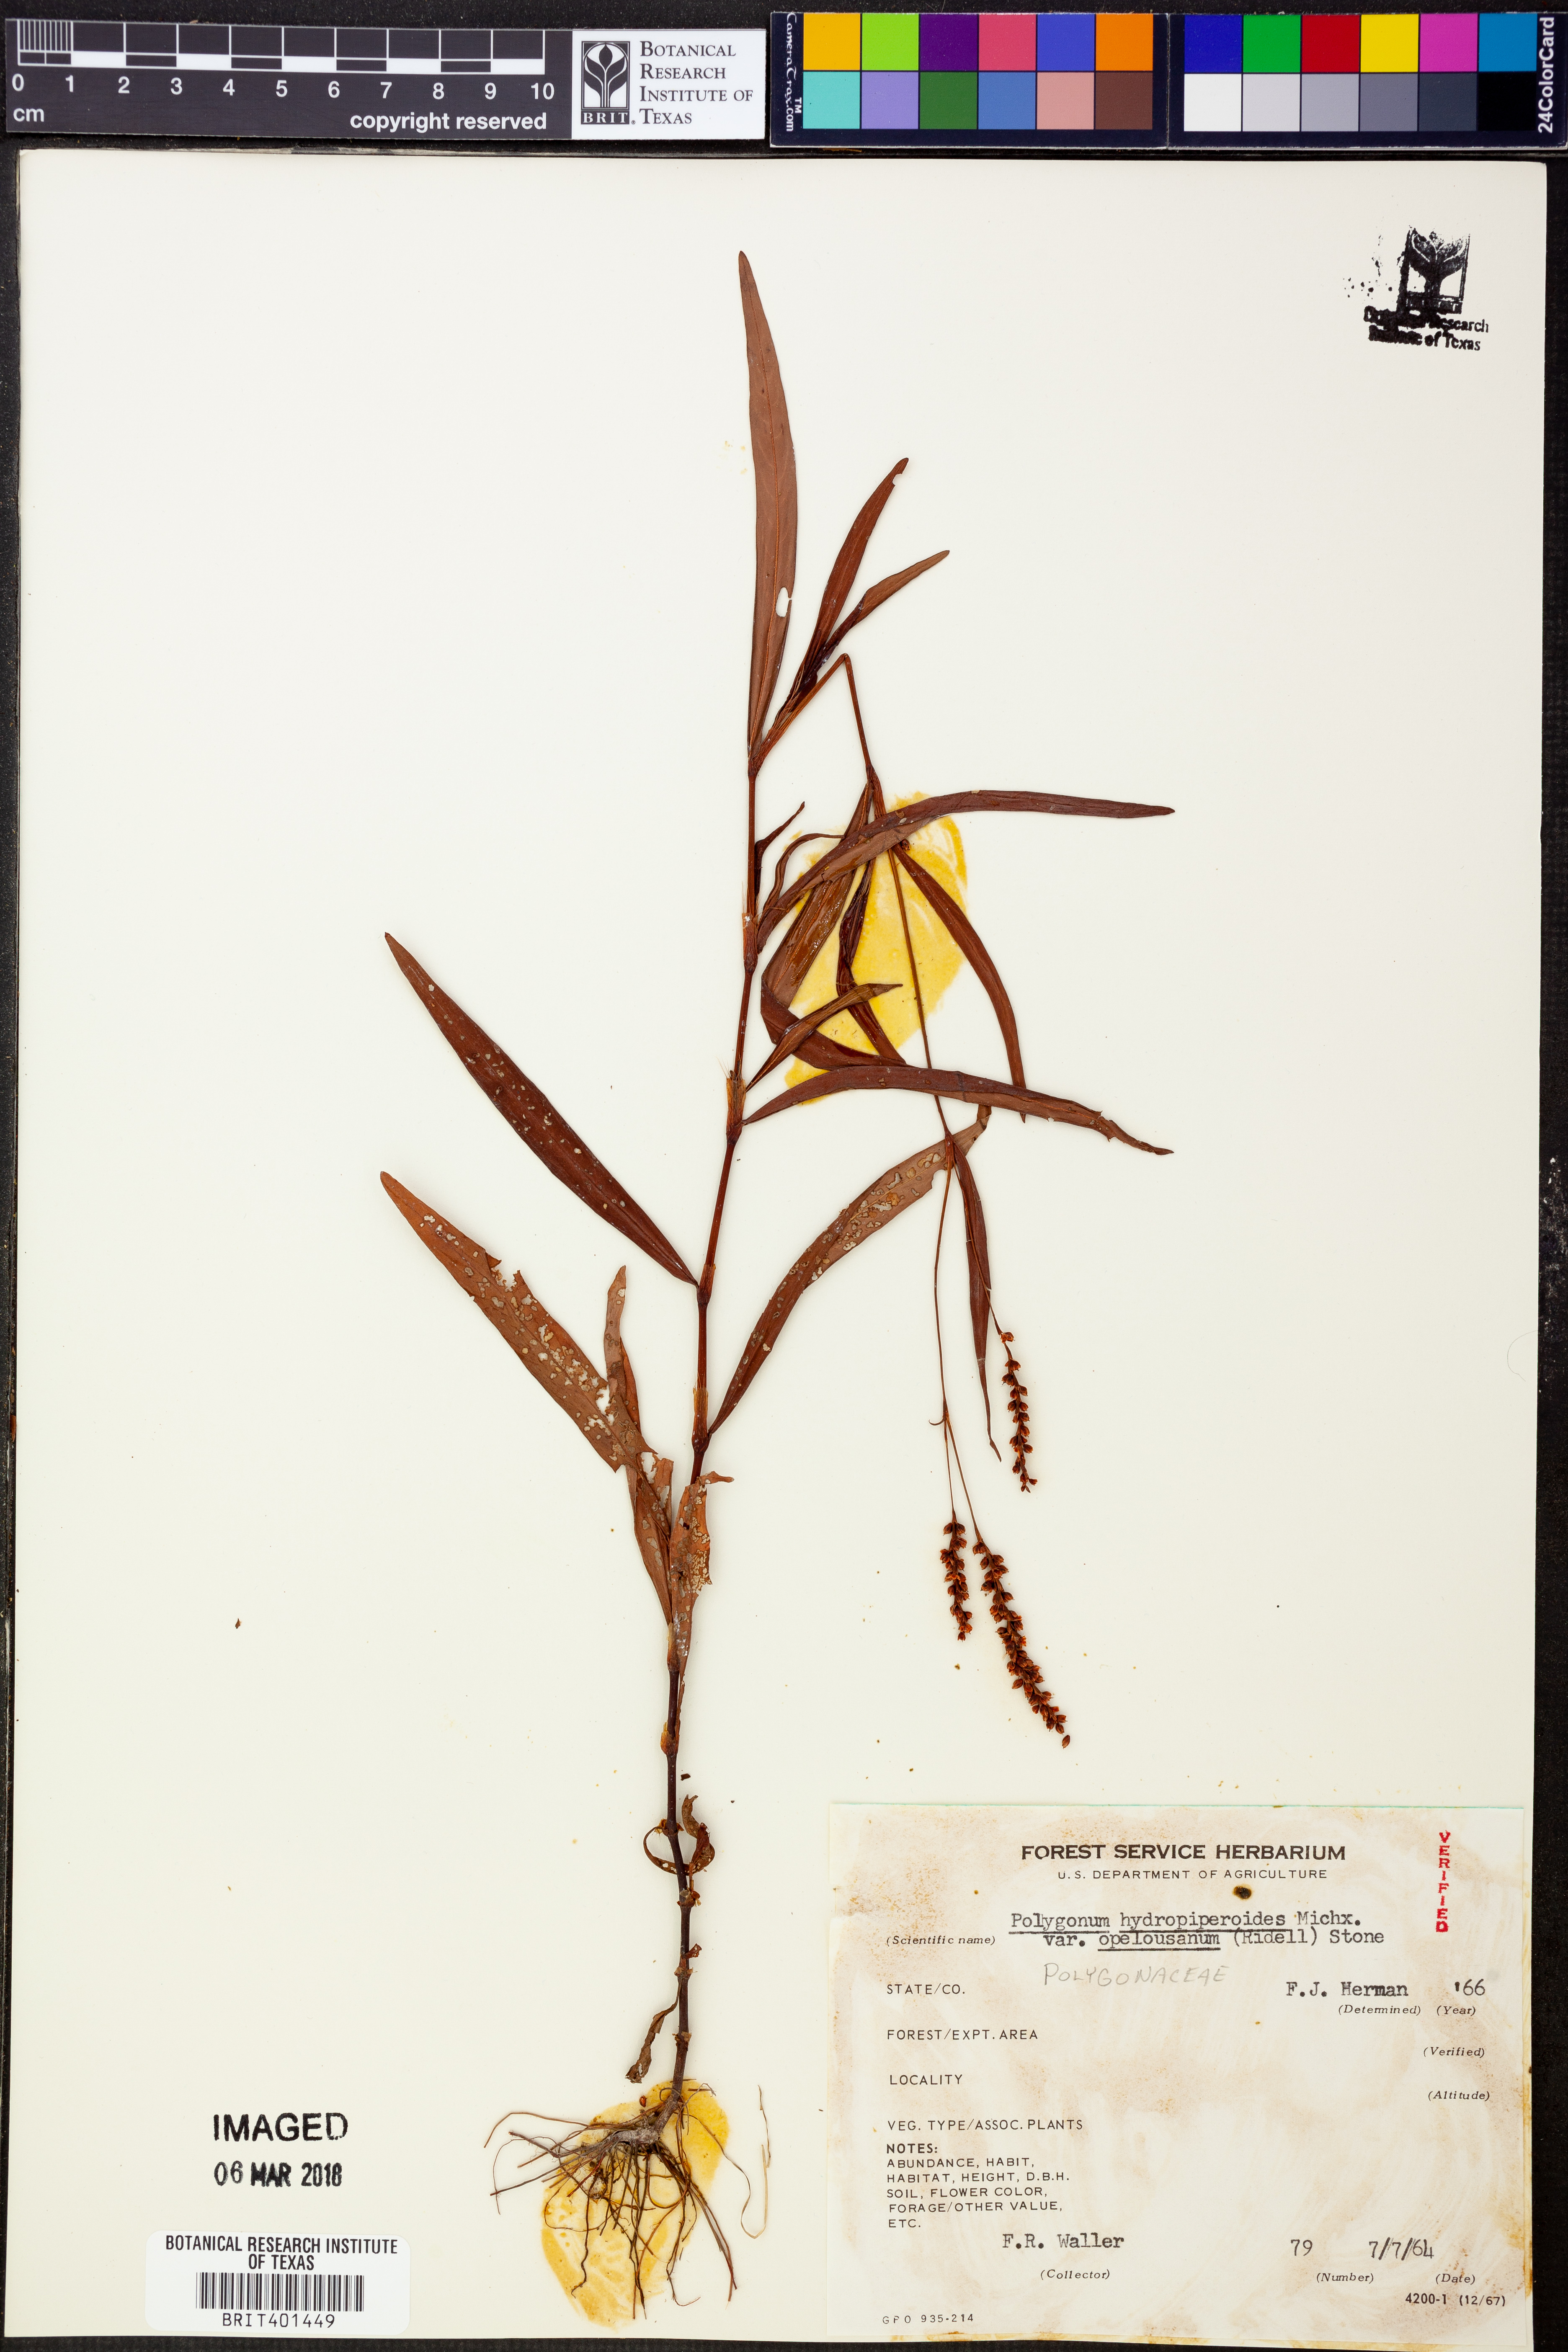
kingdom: Plantae
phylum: Tracheophyta
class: Magnoliopsida
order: Caryophyllales
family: Polygonaceae
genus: Persicaria
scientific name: Persicaria hydropiperoides
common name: Swamp smartweed
